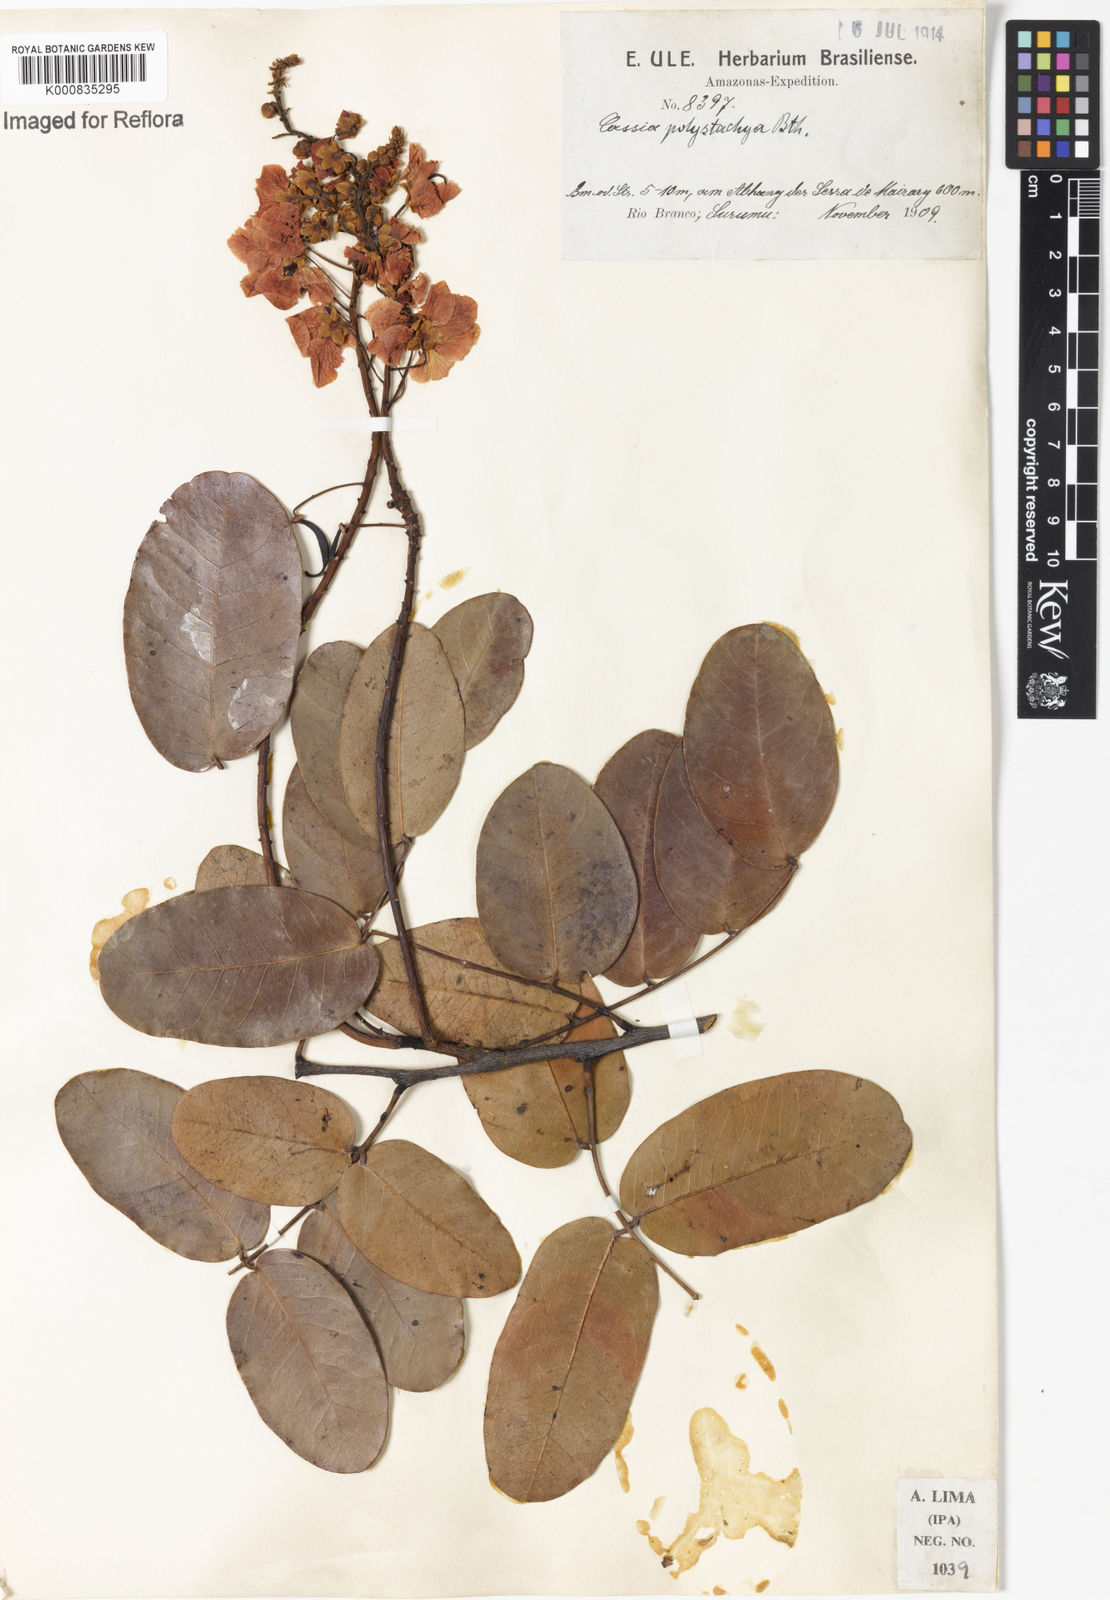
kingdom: Plantae
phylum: Tracheophyta
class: Magnoliopsida
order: Fabales
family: Fabaceae
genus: Chamaecrista
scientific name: Chamaecrista polystachya
